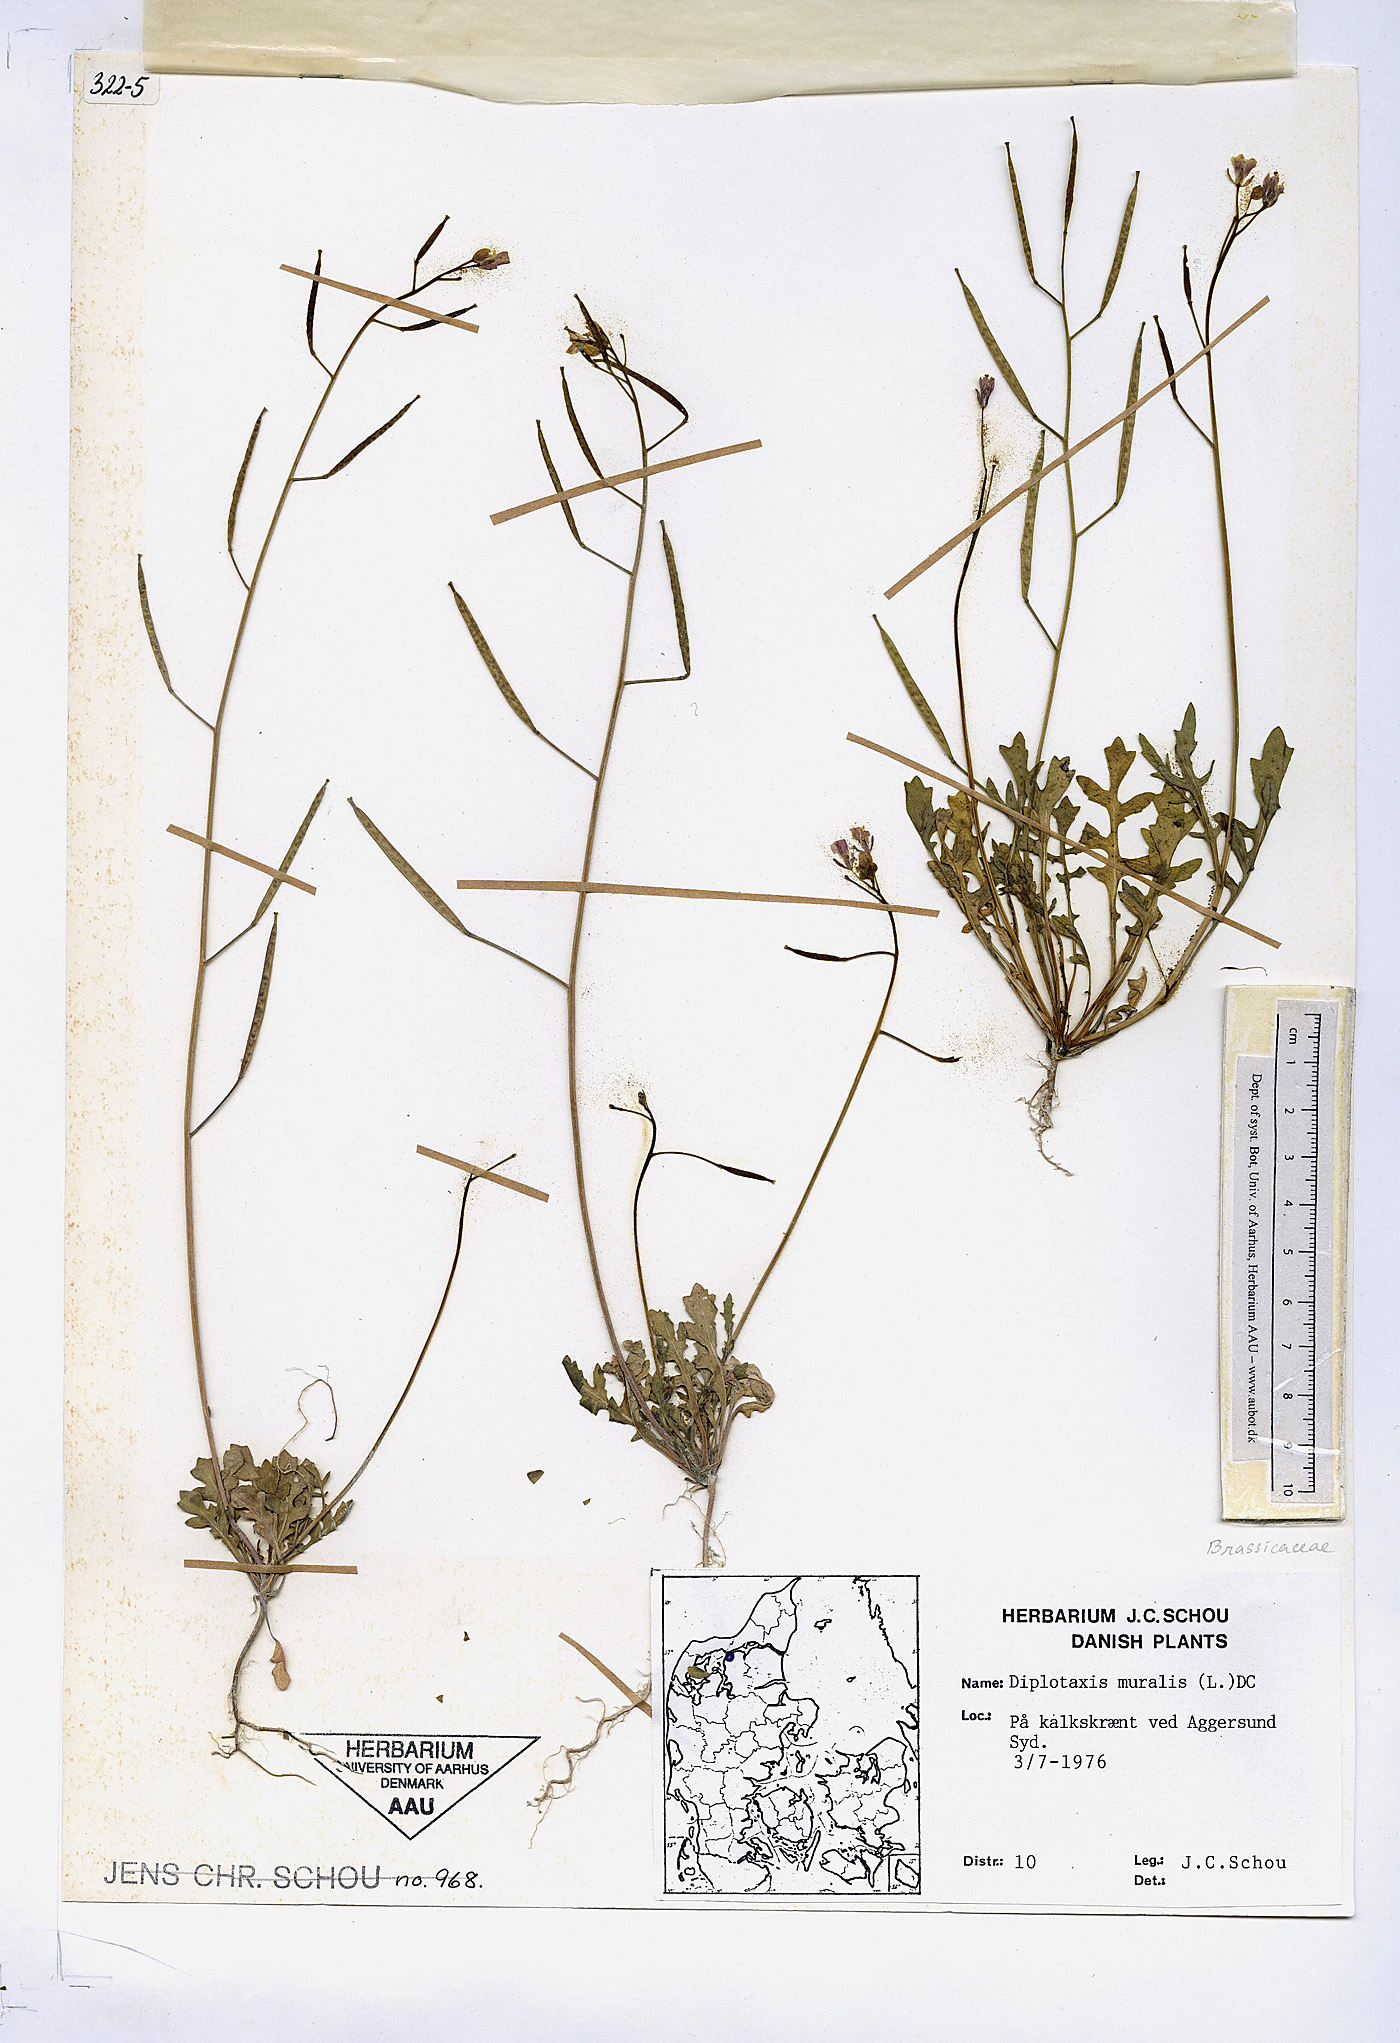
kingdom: Plantae
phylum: Tracheophyta
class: Magnoliopsida
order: Brassicales
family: Brassicaceae
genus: Diplotaxis
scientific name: Diplotaxis muralis
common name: Annual wall-rocket
